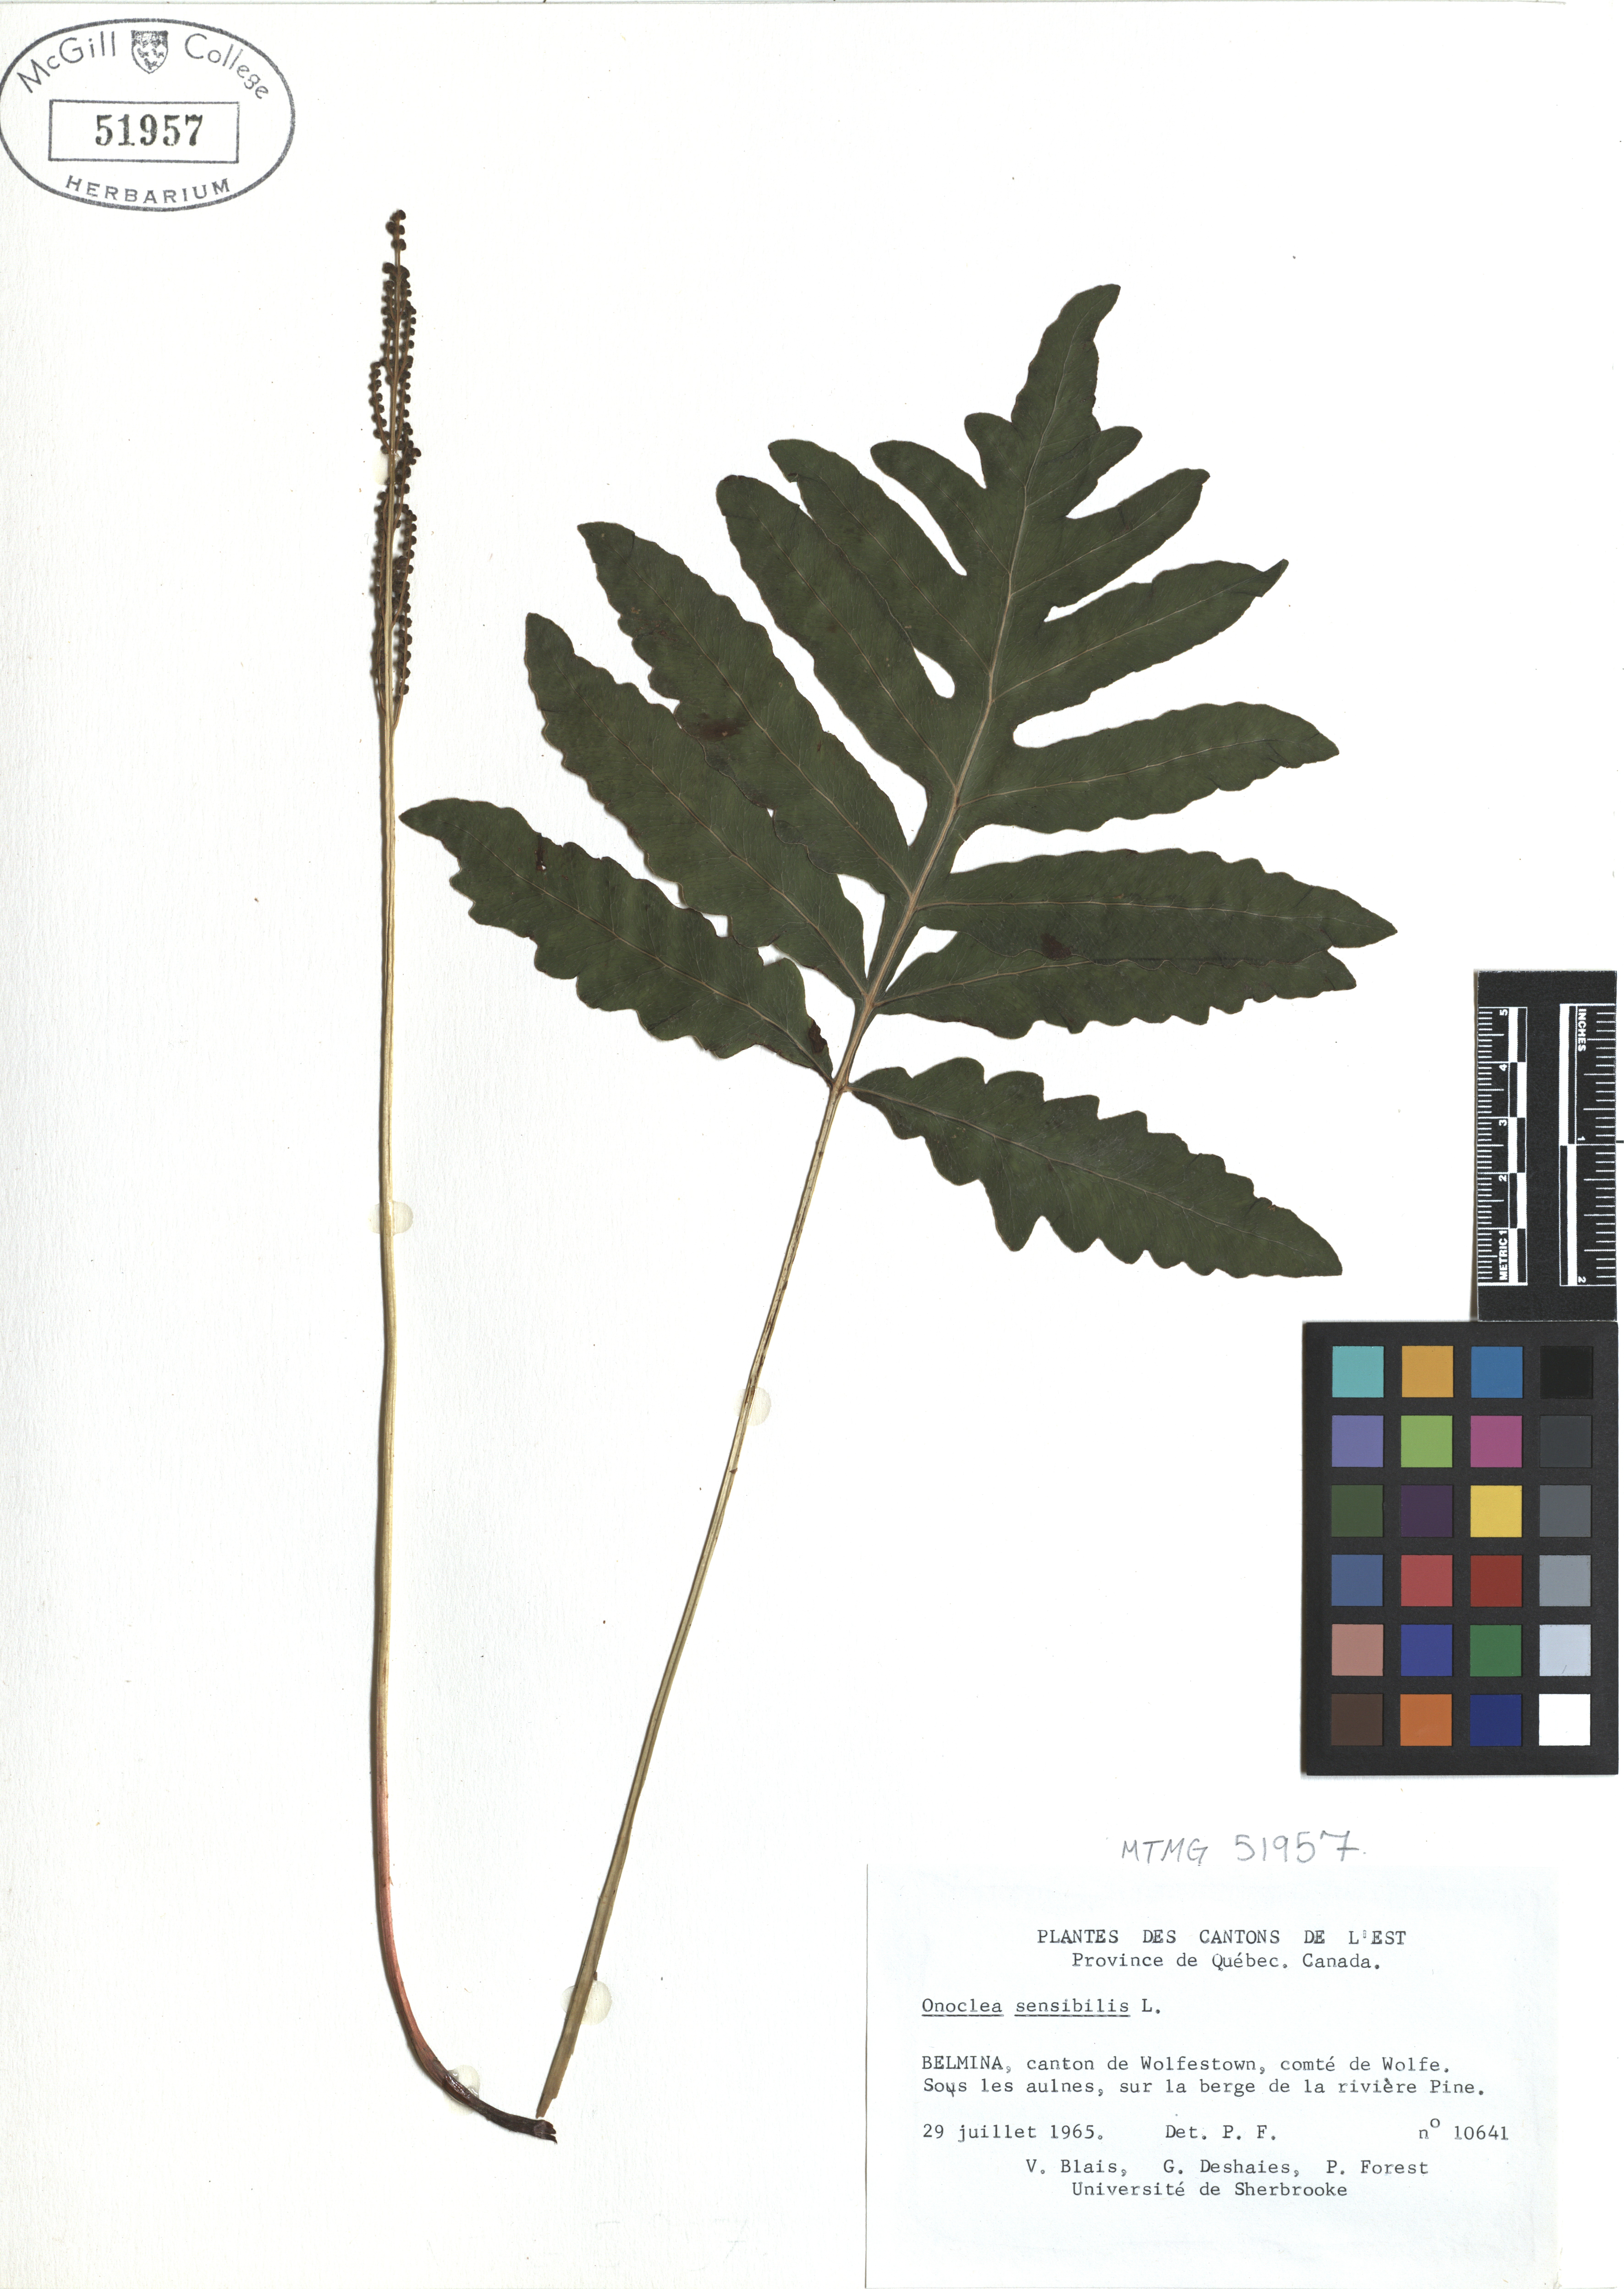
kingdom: Plantae
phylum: Tracheophyta
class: Polypodiopsida
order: Polypodiales
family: Onocleaceae
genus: Onoclea
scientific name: Onoclea sensibilis
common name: Sensitive fern
